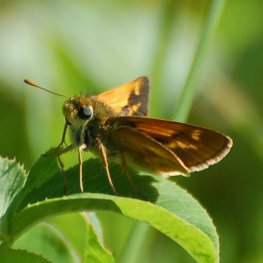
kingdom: Animalia
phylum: Arthropoda
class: Insecta
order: Lepidoptera
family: Hesperiidae
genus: Polites
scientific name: Polites
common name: Long Dash Skipper
